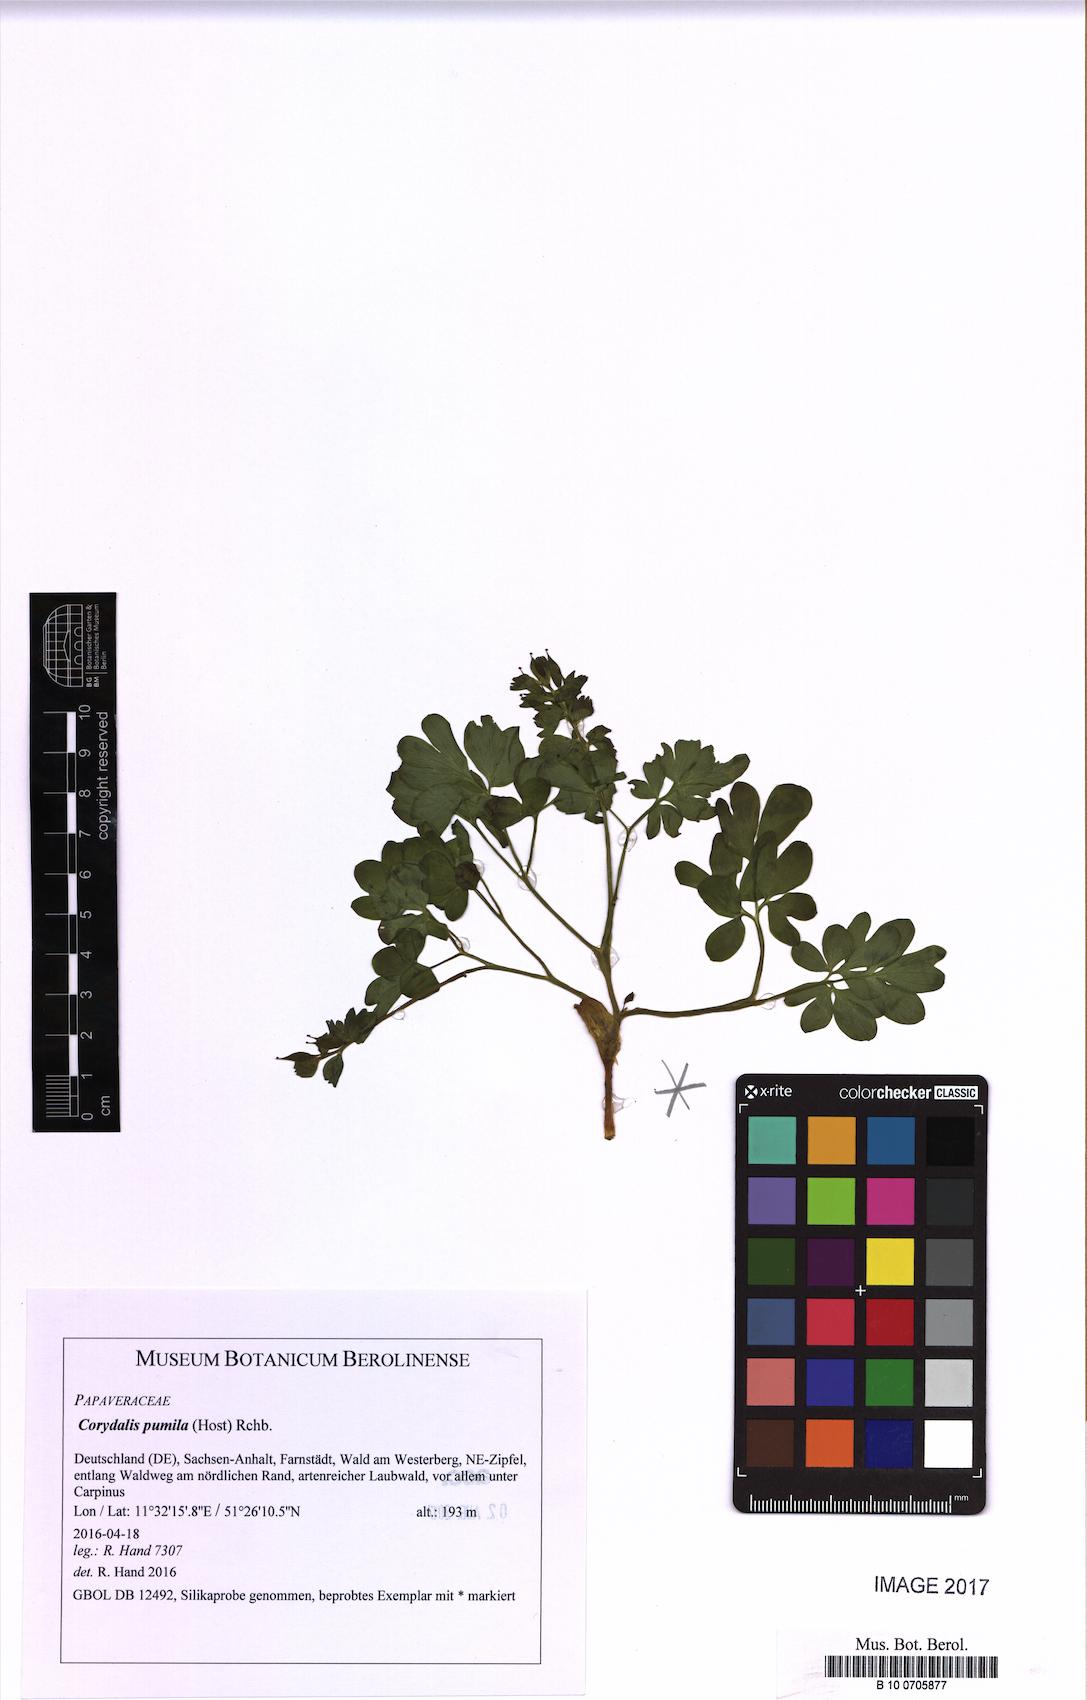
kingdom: Plantae
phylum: Tracheophyta
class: Magnoliopsida
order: Ranunculales
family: Papaveraceae
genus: Corydalis
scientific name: Corydalis pumila
